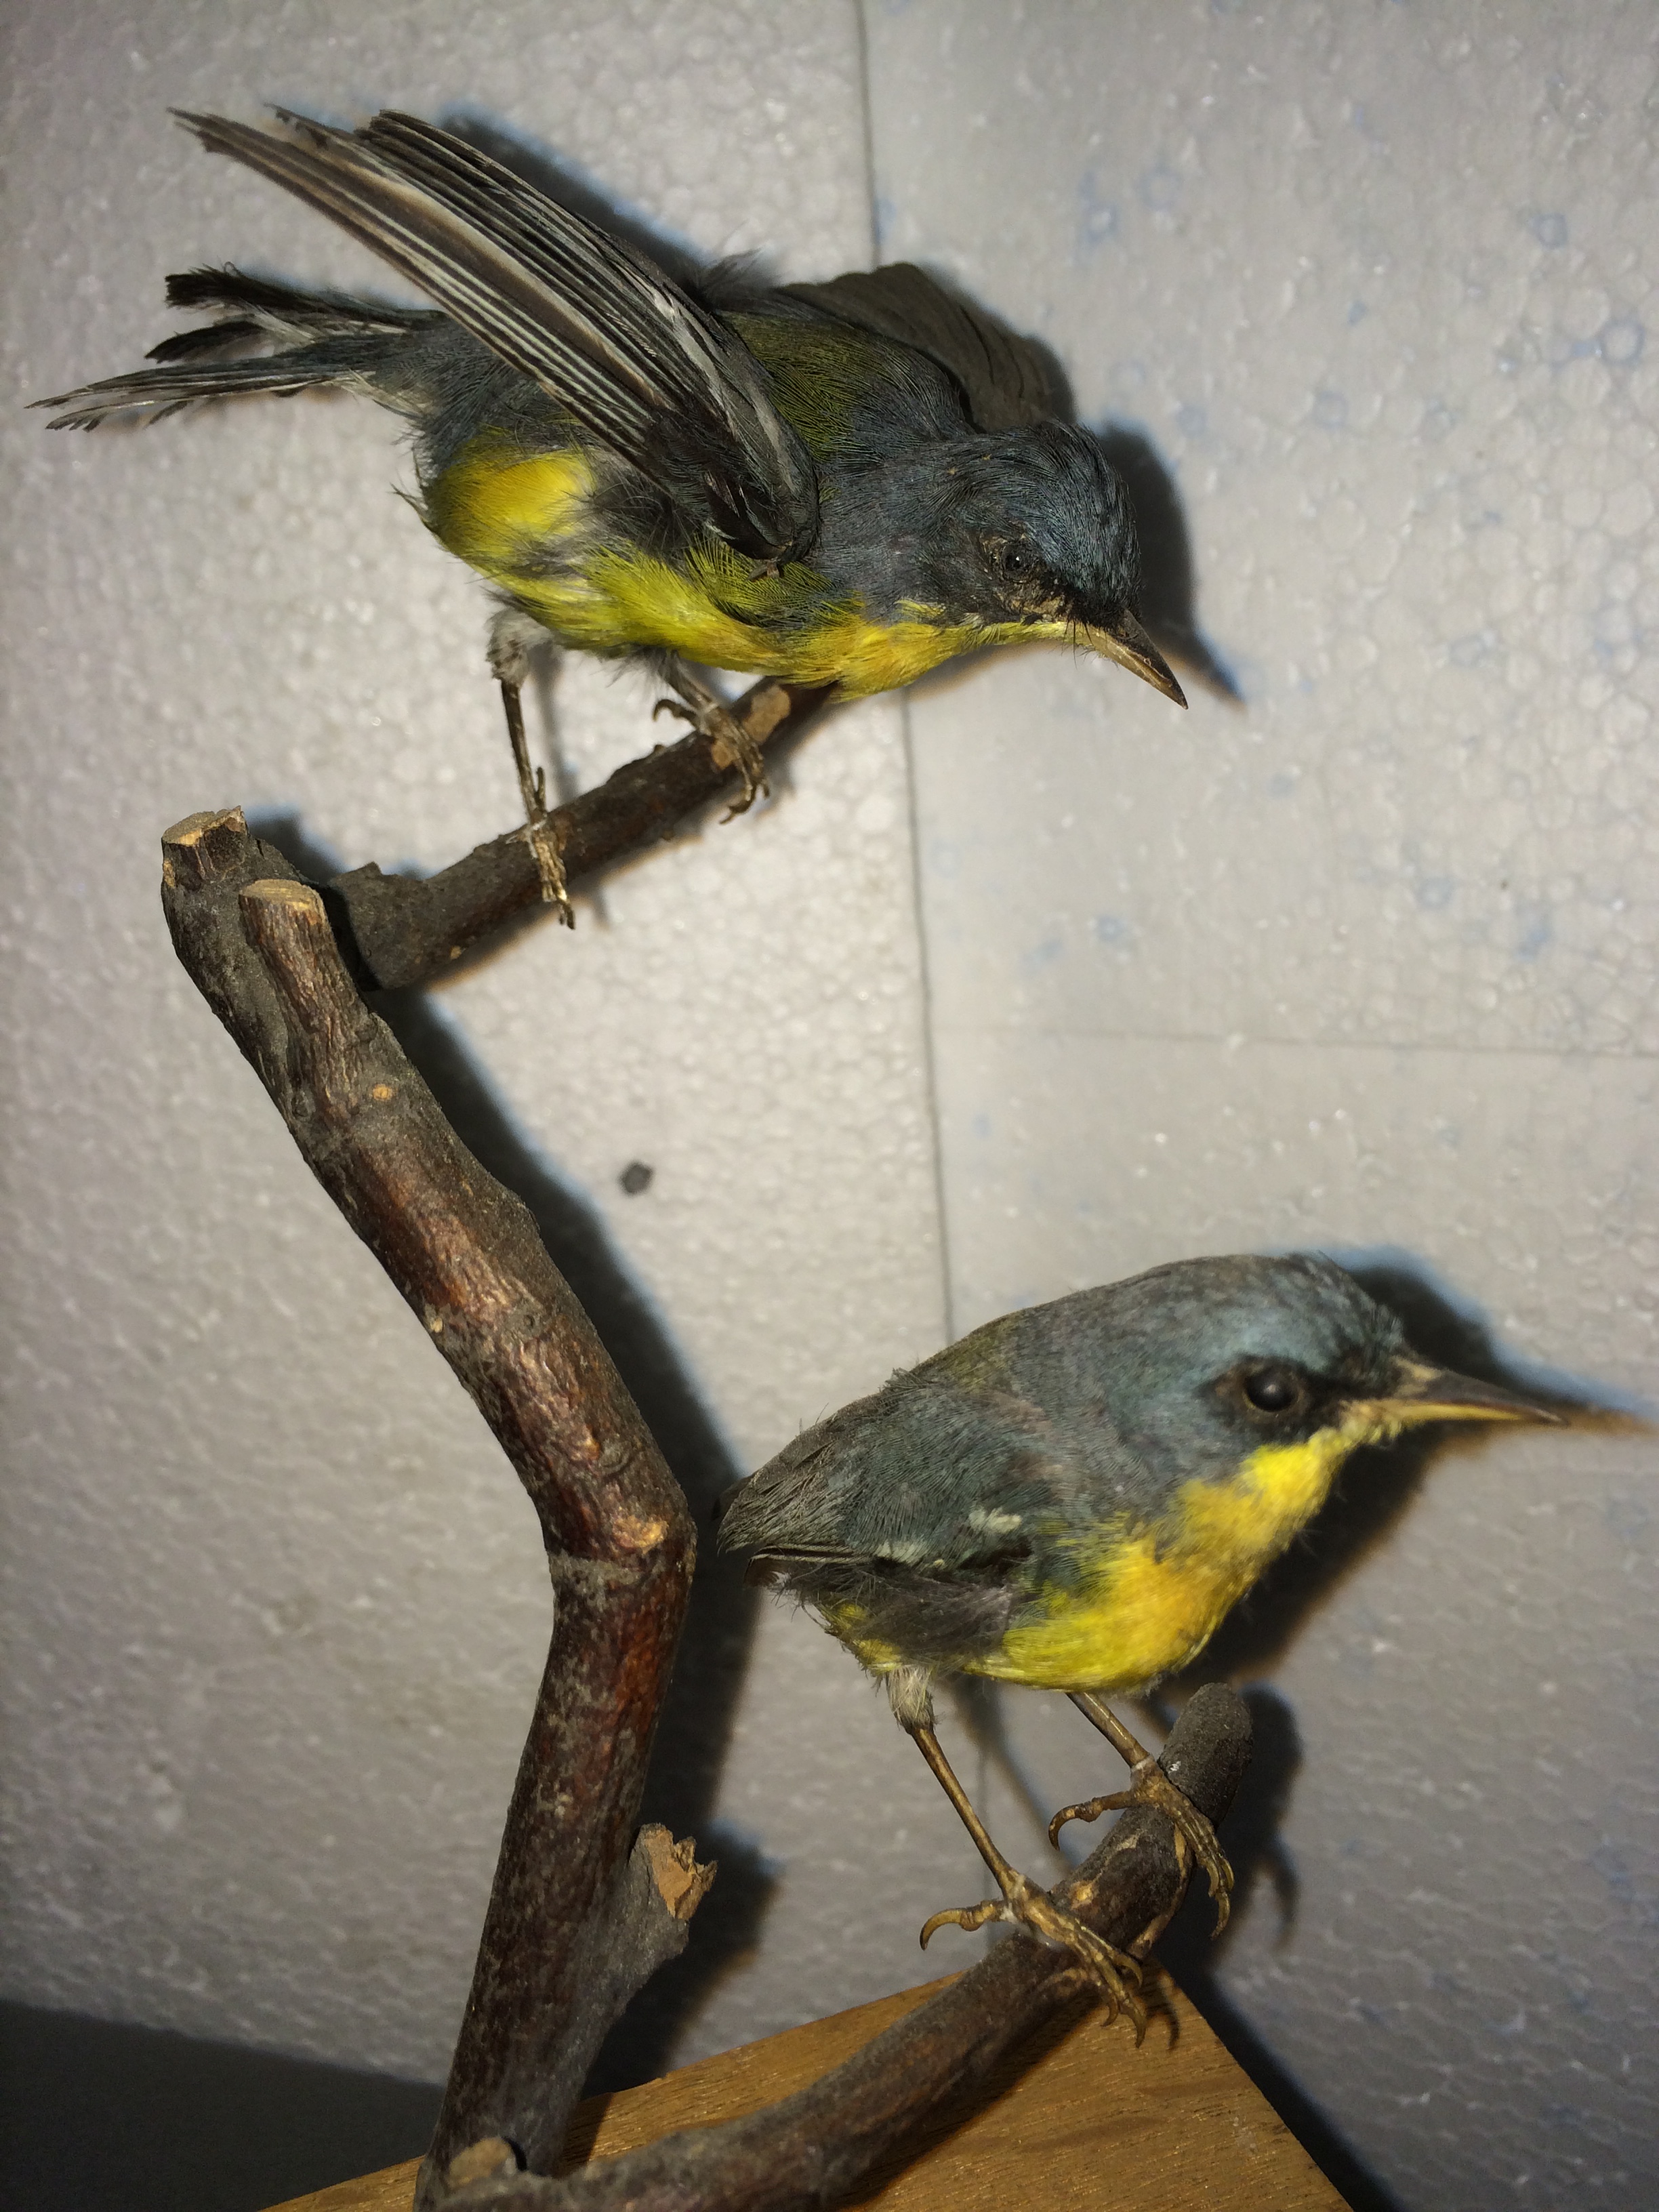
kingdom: Animalia
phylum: Chordata
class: Aves
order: Passeriformes
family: Parulidae
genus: Setophaga
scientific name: Setophaga pitiayumi
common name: Tropical parula
